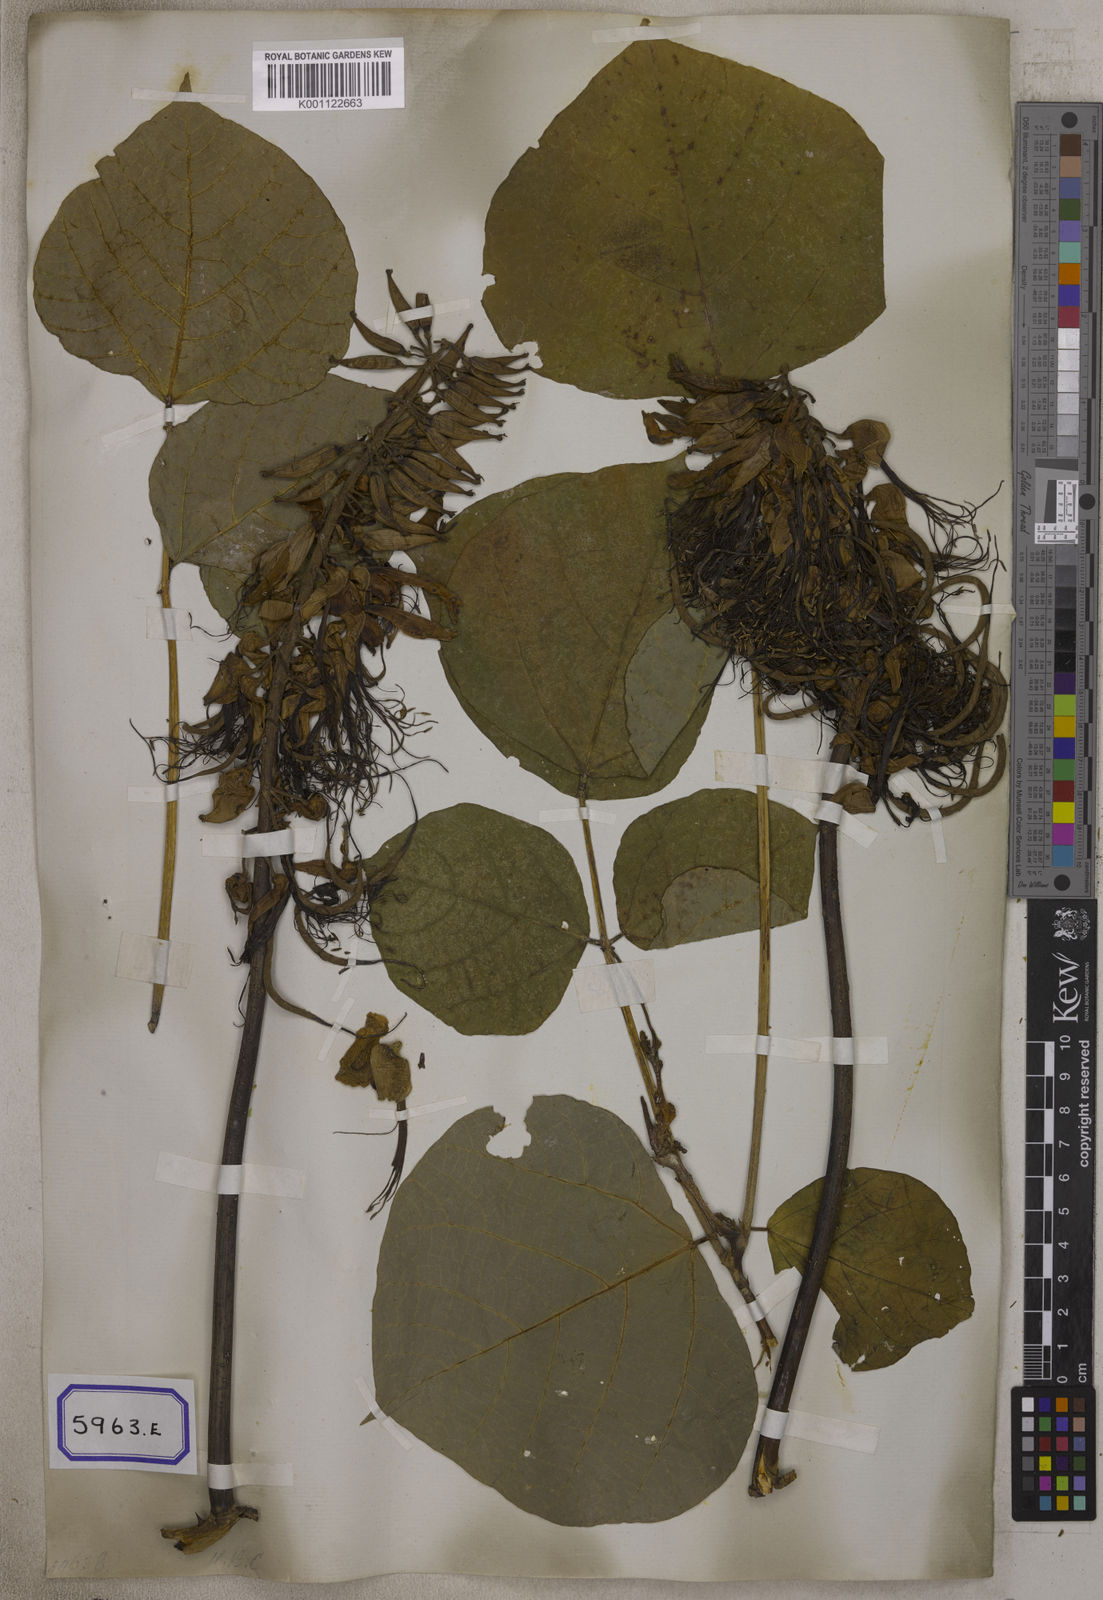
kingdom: Plantae
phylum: Tracheophyta
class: Magnoliopsida
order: Fabales
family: Fabaceae
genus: Erythrina
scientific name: Erythrina variegata
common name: Indian coral tree
